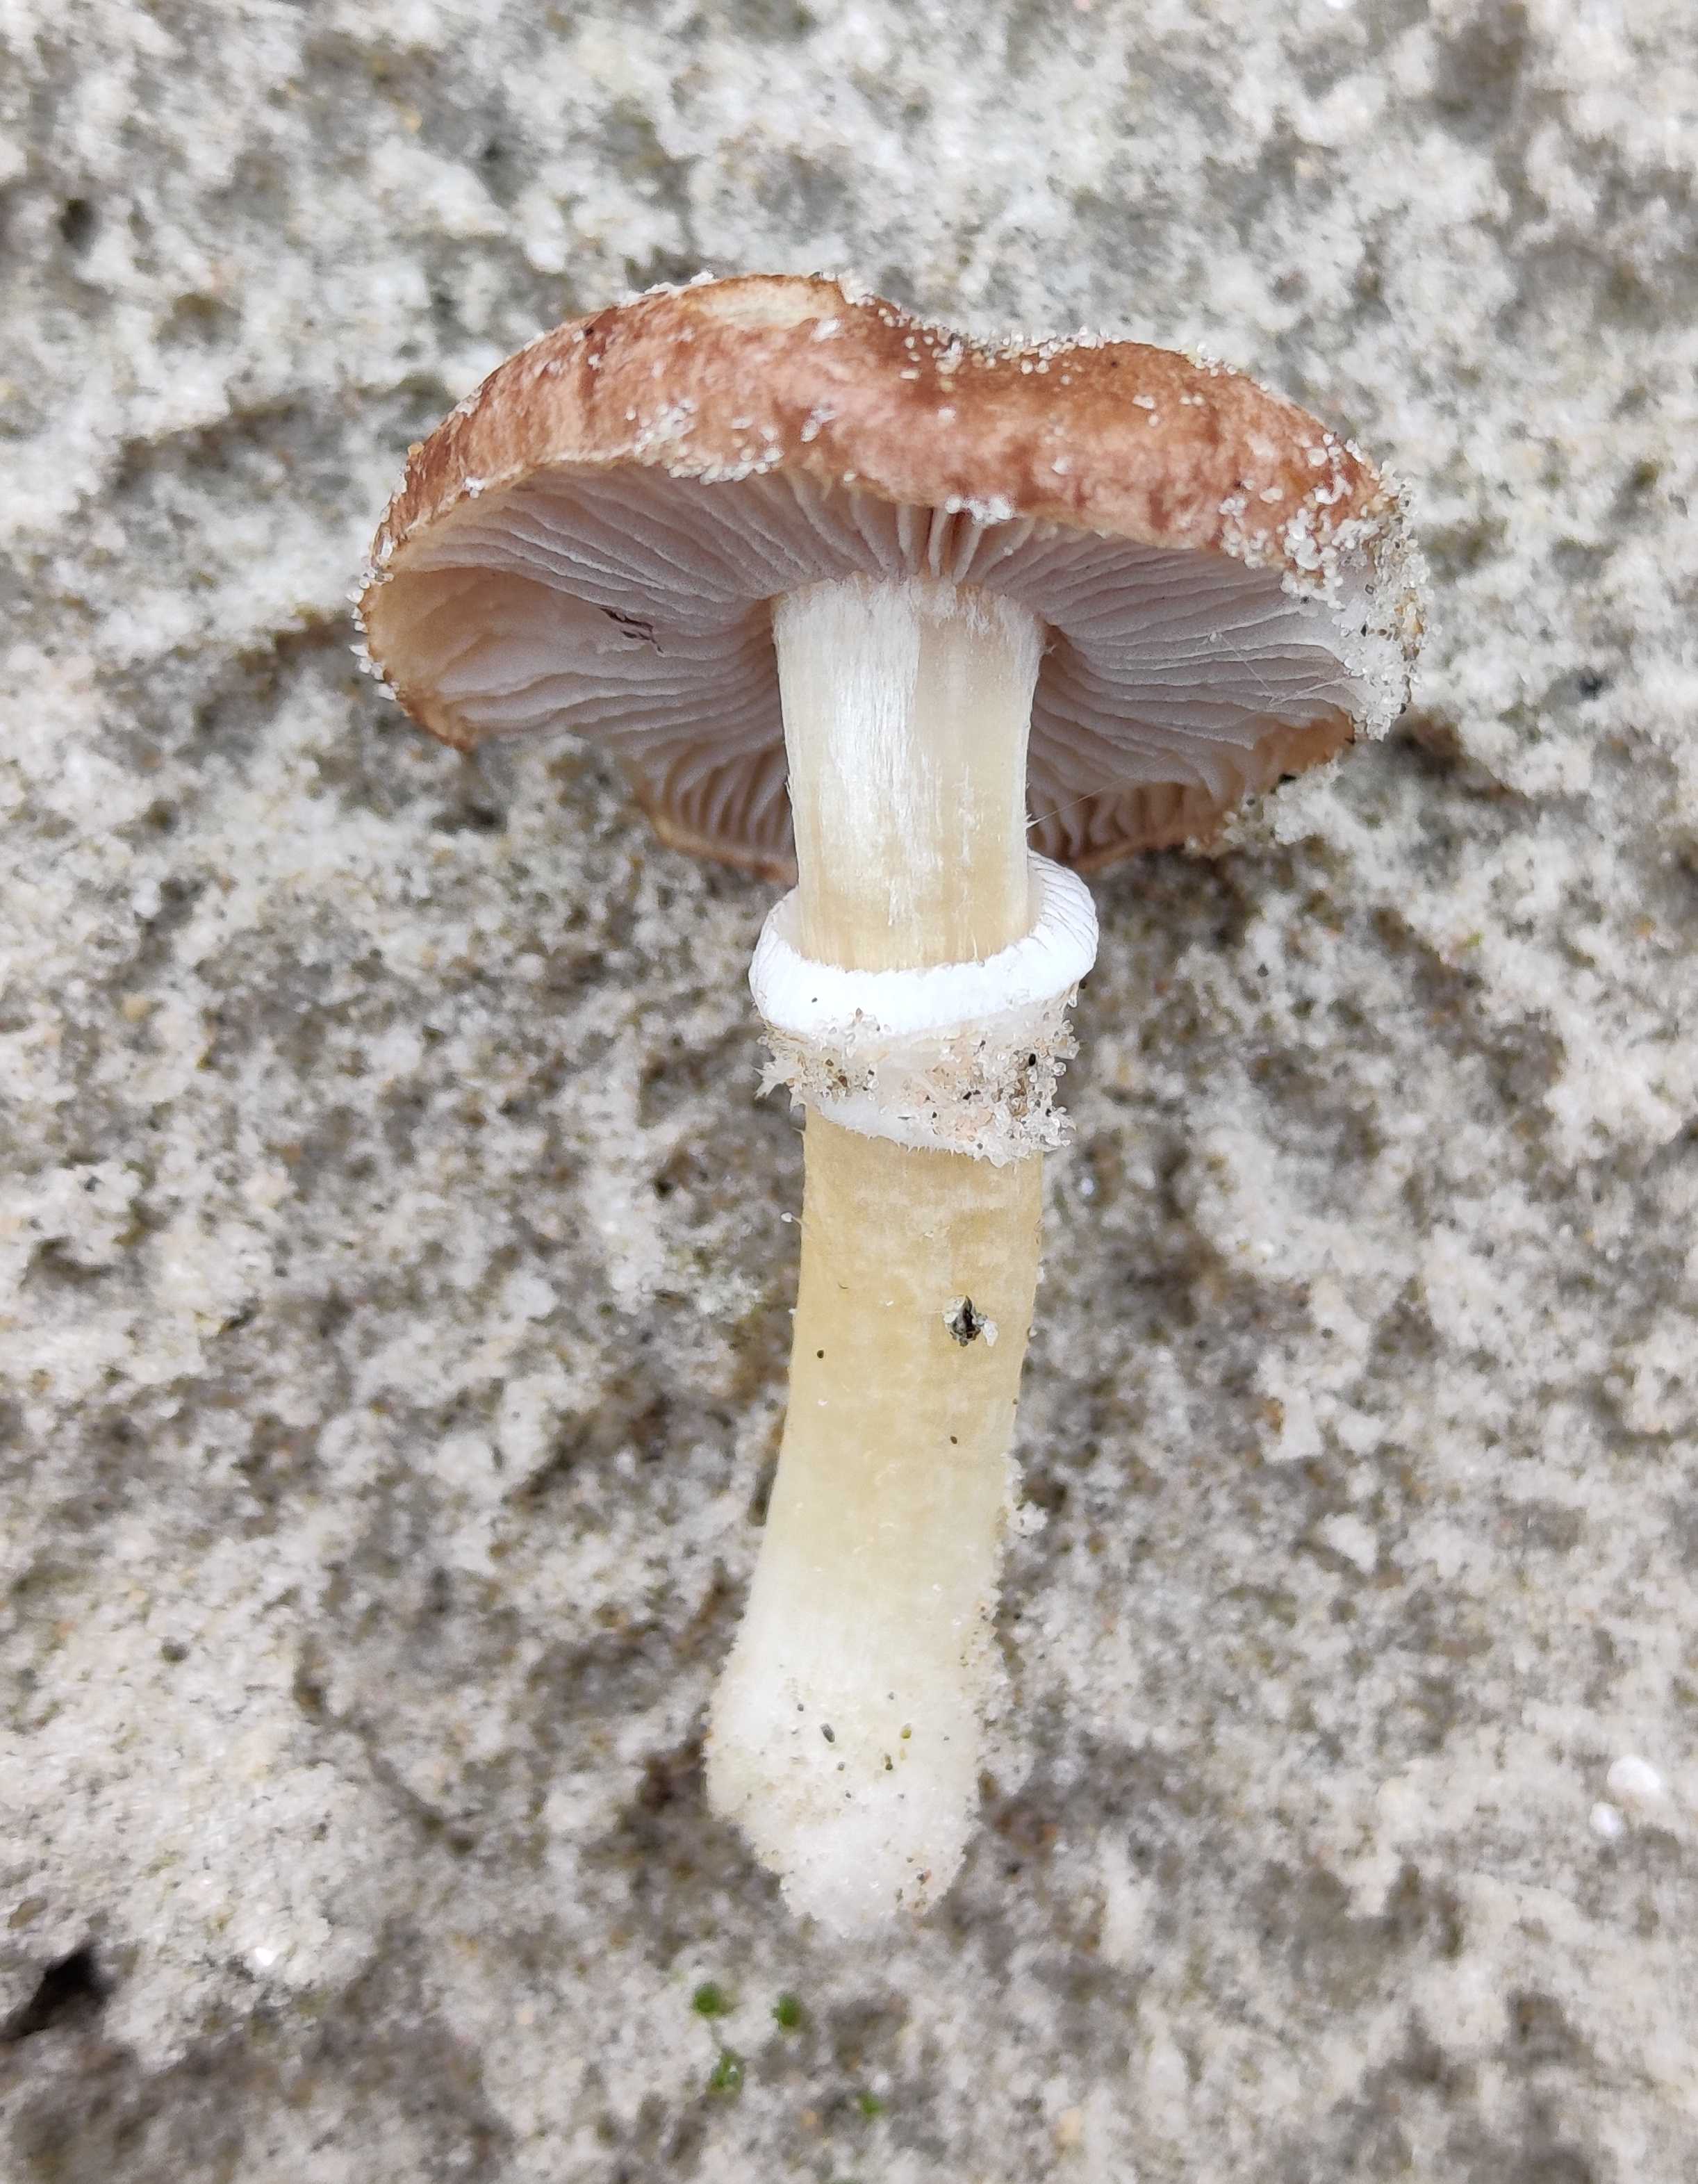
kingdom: Fungi
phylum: Basidiomycota
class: Agaricomycetes
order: Agaricales
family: Strophariaceae
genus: Stropharia
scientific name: Stropharia
